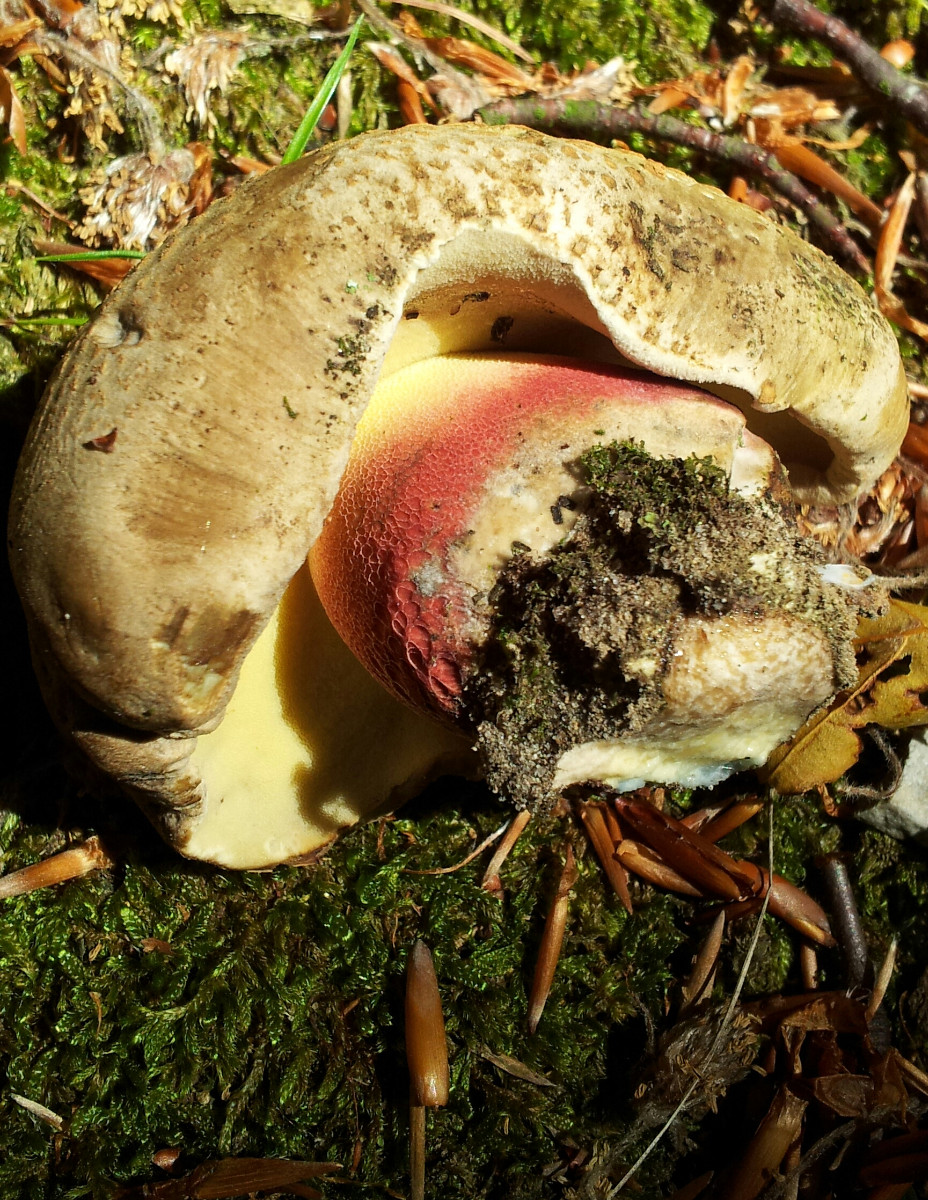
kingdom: Fungi
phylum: Basidiomycota
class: Agaricomycetes
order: Boletales
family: Boletaceae
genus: Caloboletus
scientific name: Caloboletus calopus
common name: skønfodet rørhat
